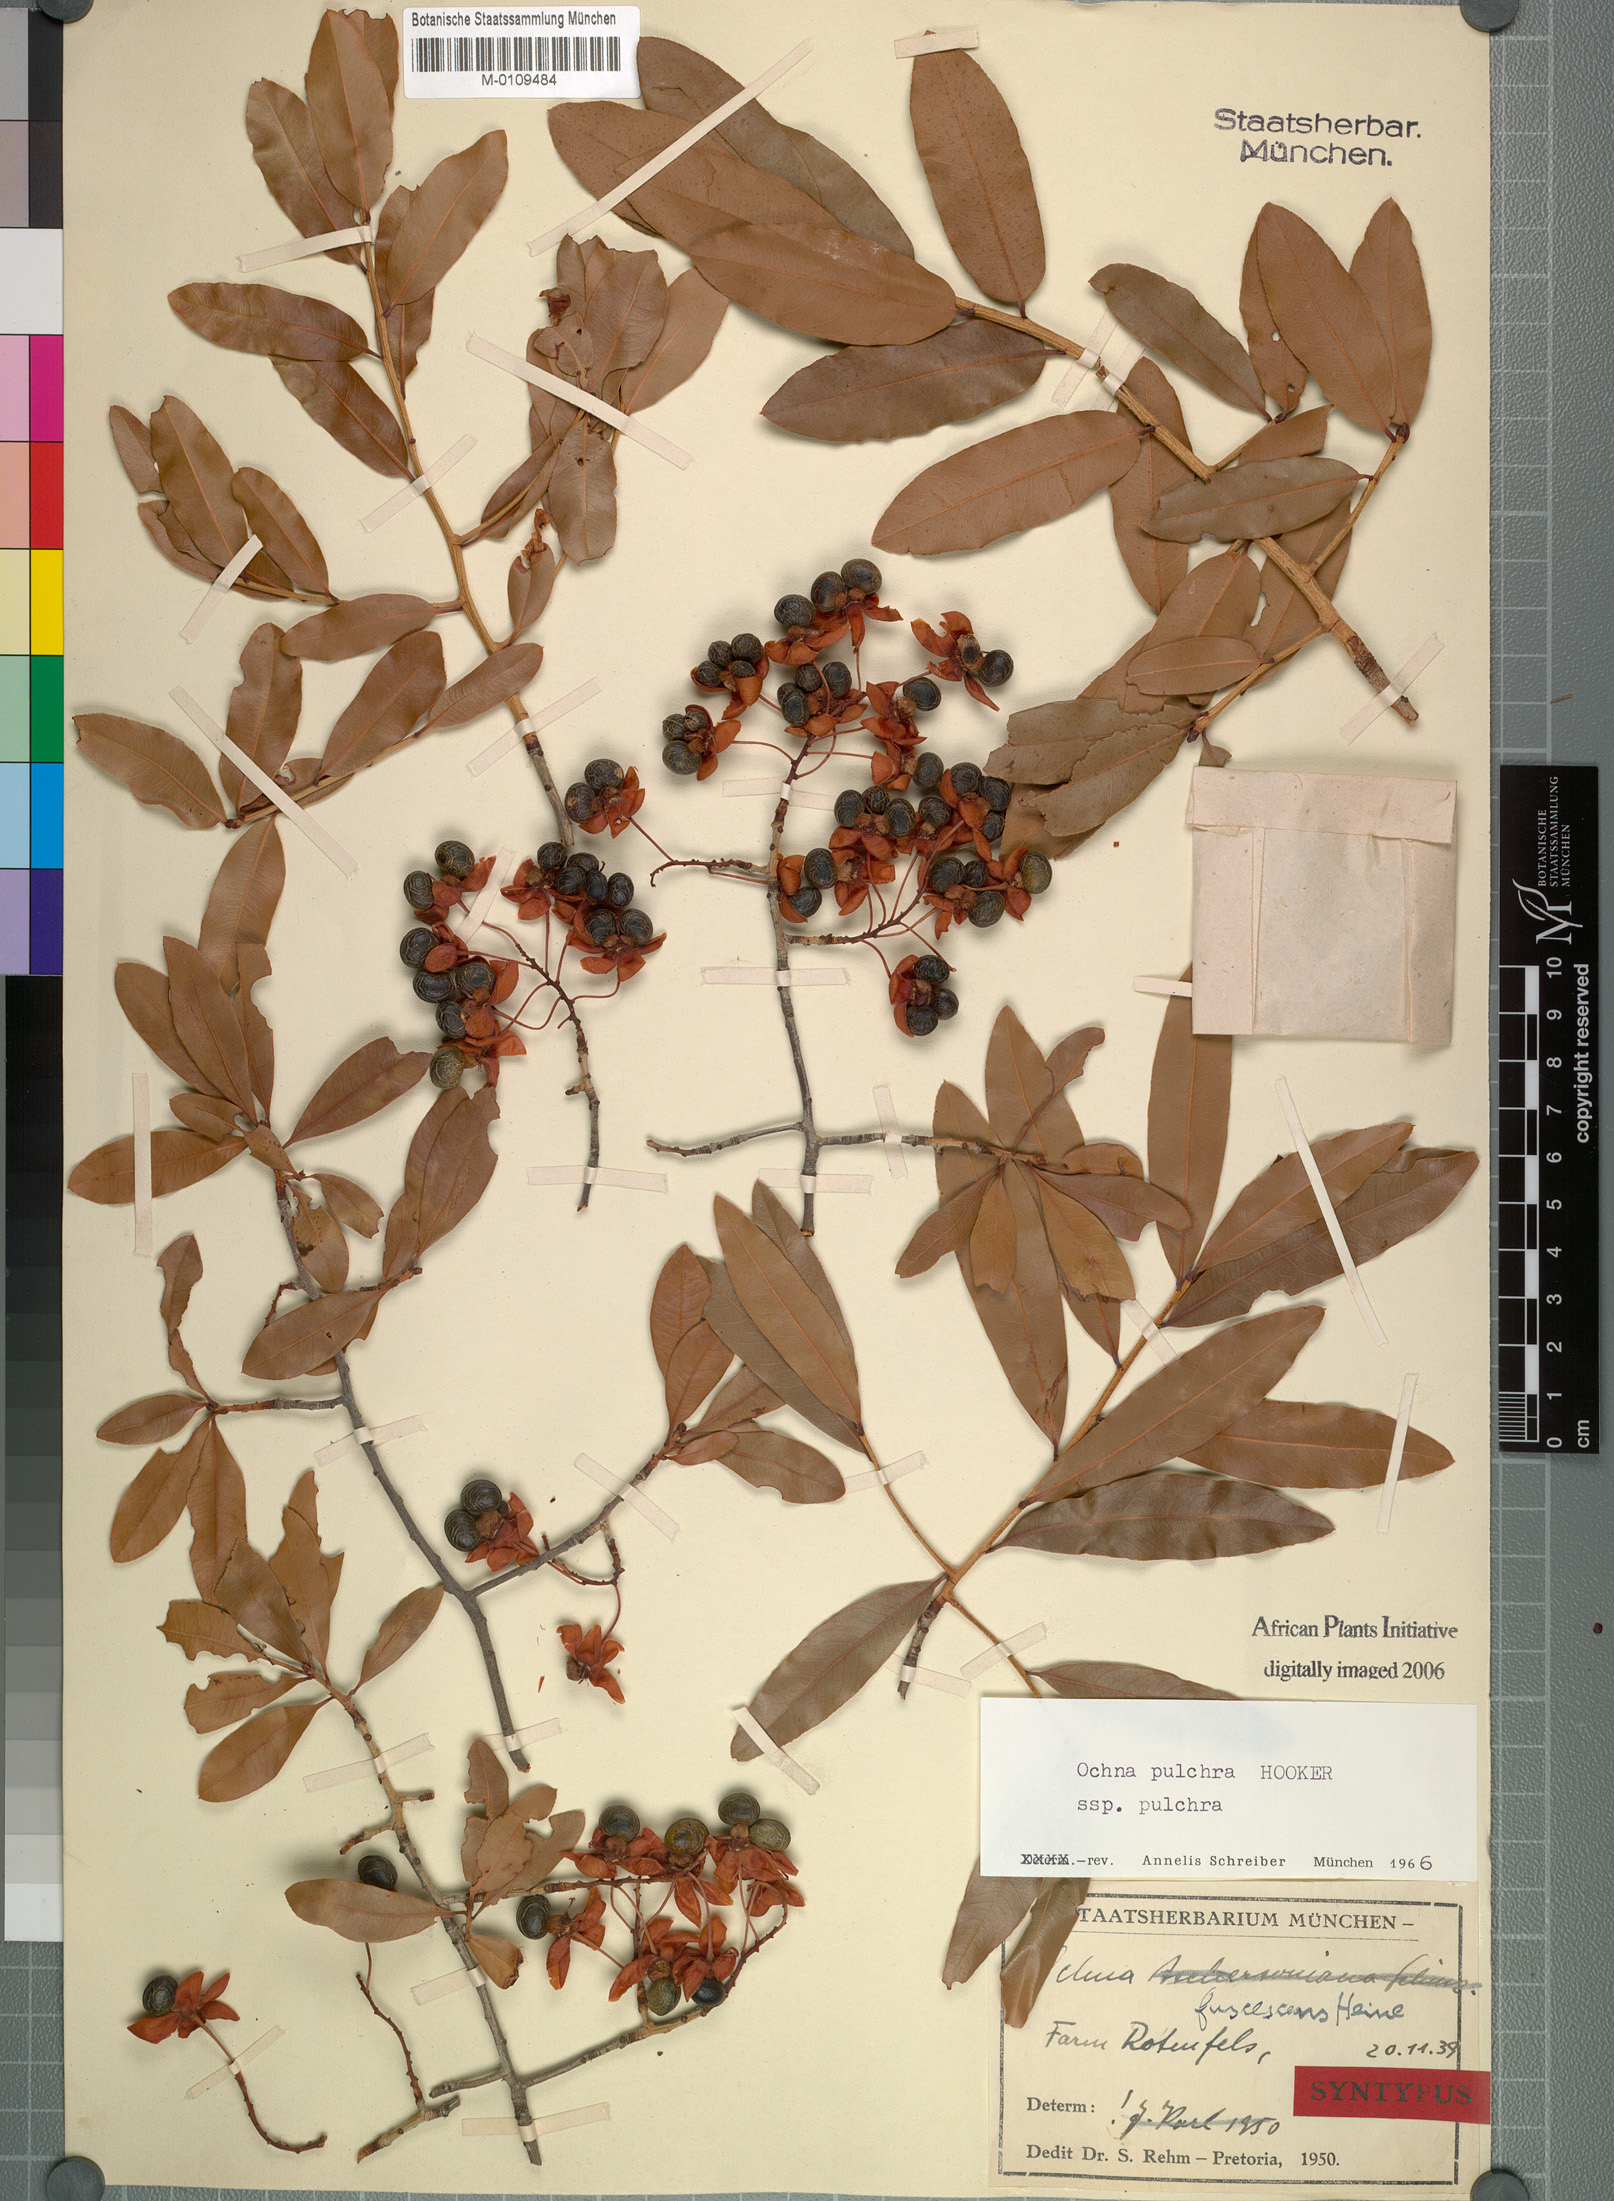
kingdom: Plantae
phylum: Tracheophyta
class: Magnoliopsida
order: Malpighiales
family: Ochnaceae
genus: Ochna
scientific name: Ochna pulchra
